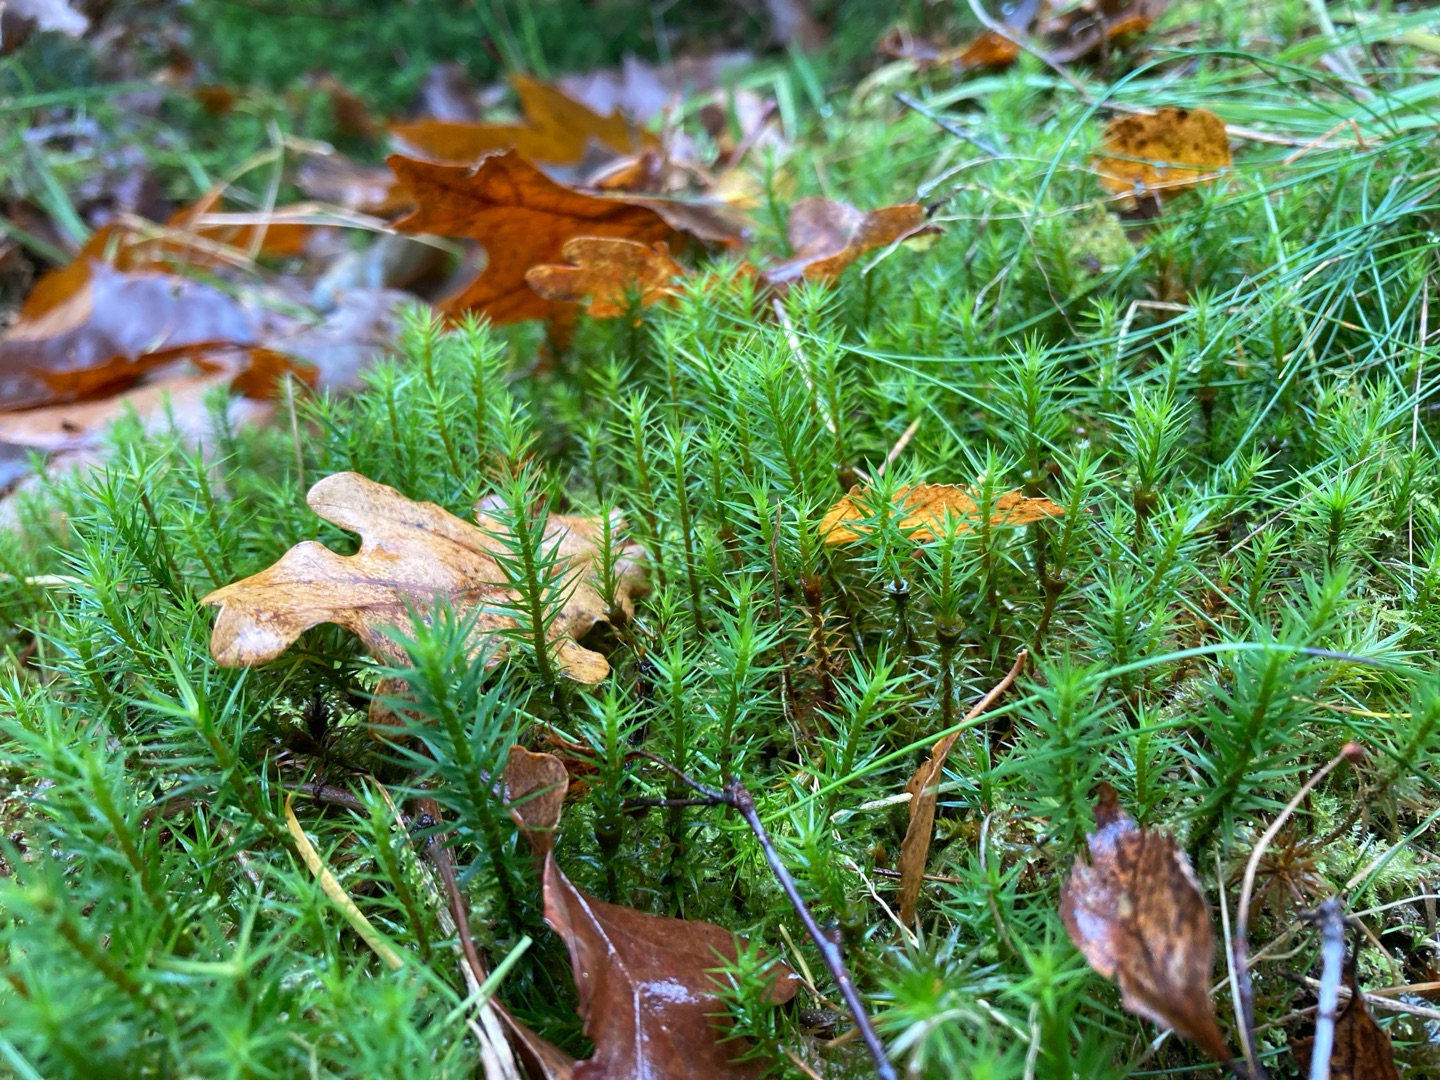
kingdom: Plantae
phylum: Bryophyta
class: Polytrichopsida
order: Polytrichales
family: Polytrichaceae
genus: Polytrichum
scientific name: Polytrichum formosum
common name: Skov-jomfruhår
